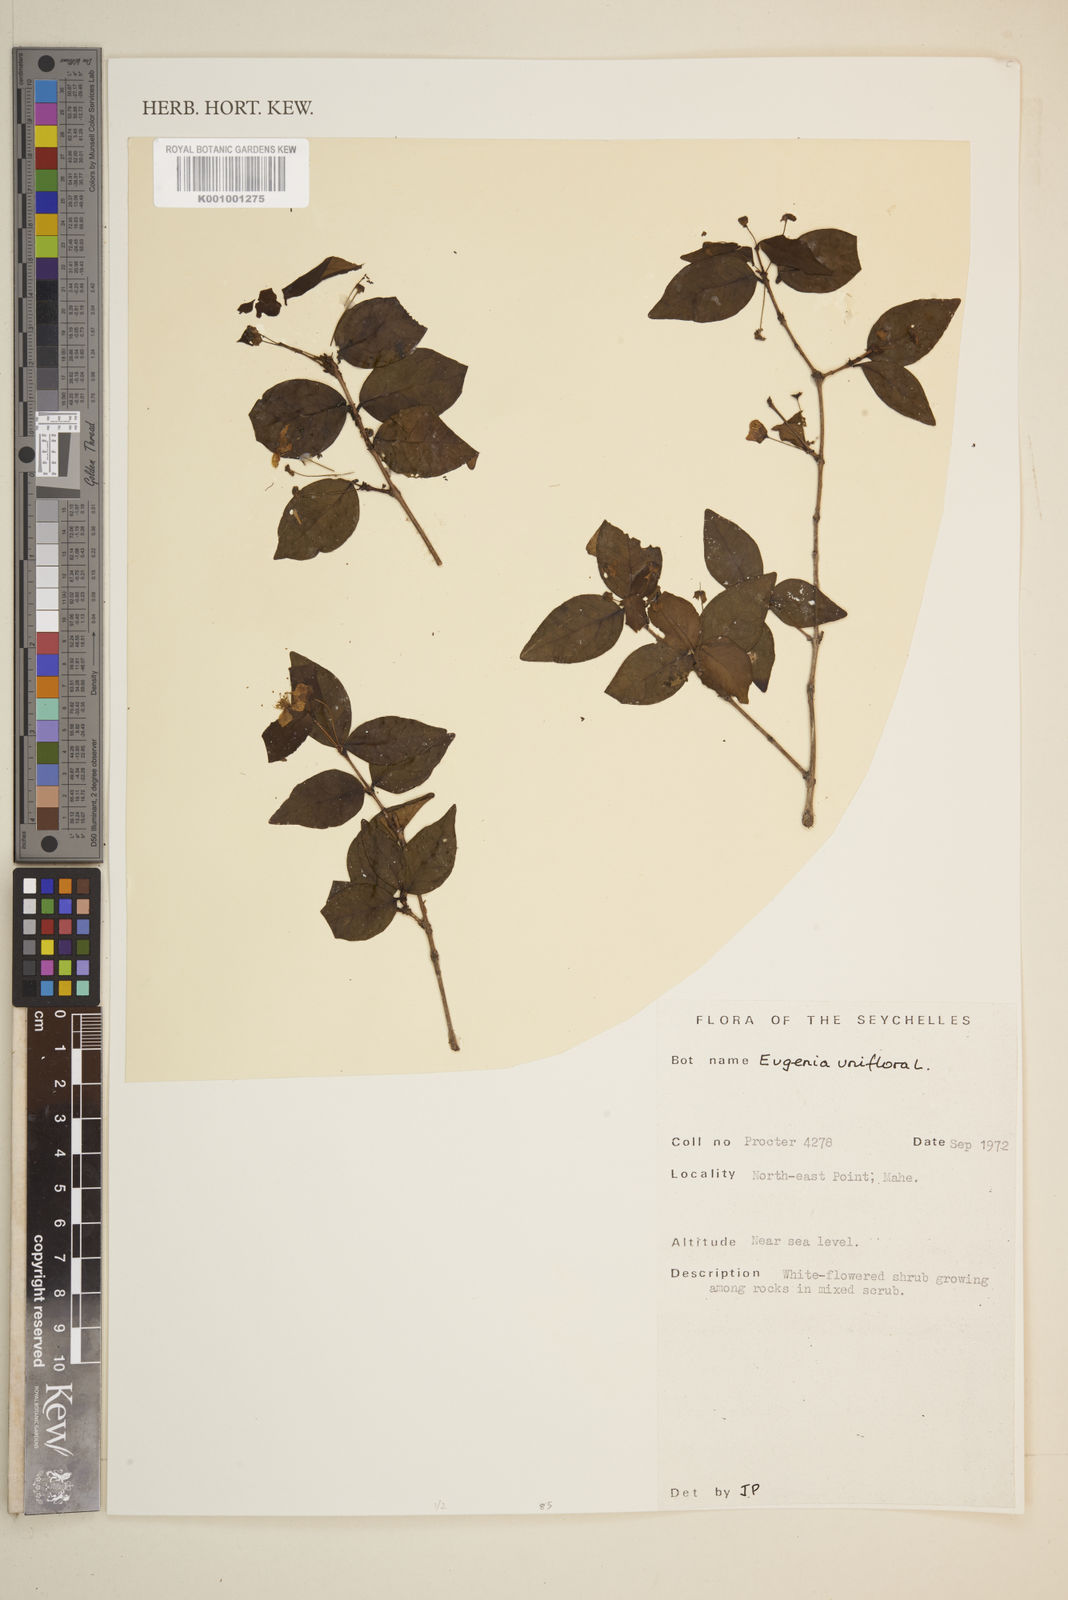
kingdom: Plantae
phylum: Tracheophyta
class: Magnoliopsida
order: Myrtales
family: Myrtaceae
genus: Eugenia
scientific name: Eugenia uniflora
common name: Surinam cherry
